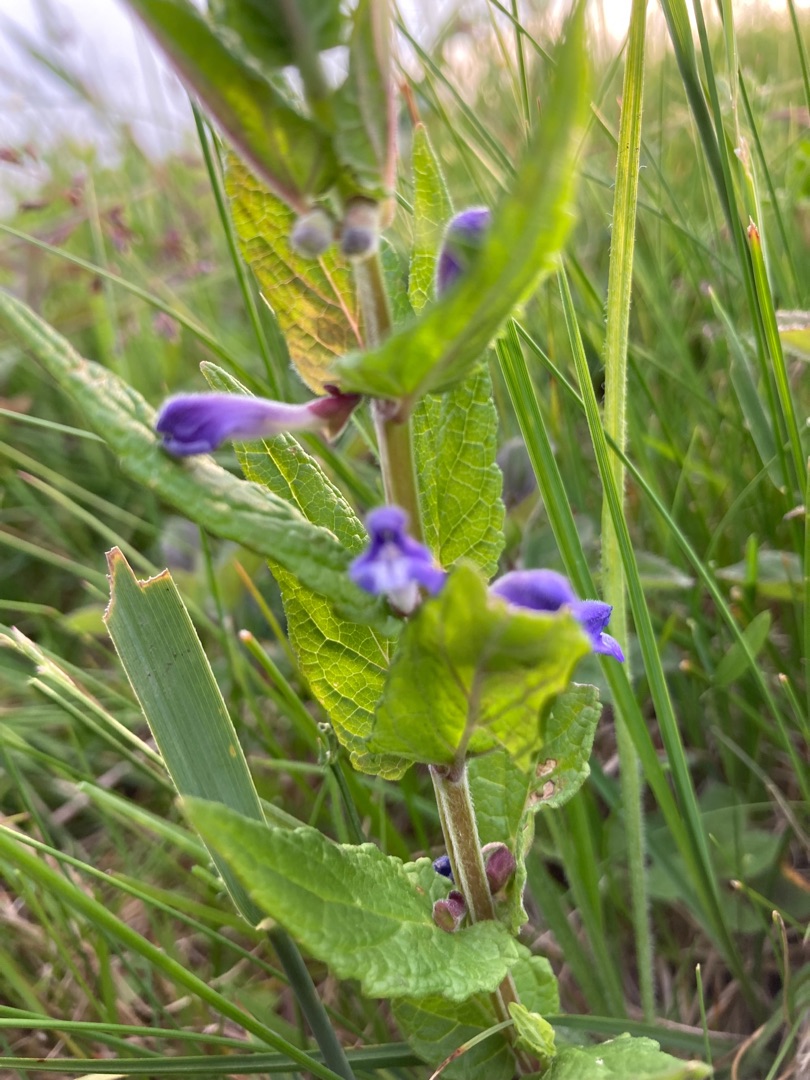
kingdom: Plantae
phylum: Tracheophyta
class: Magnoliopsida
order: Lamiales
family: Lamiaceae
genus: Scutellaria
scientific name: Scutellaria galericulata
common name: Almindelig skjolddrager
